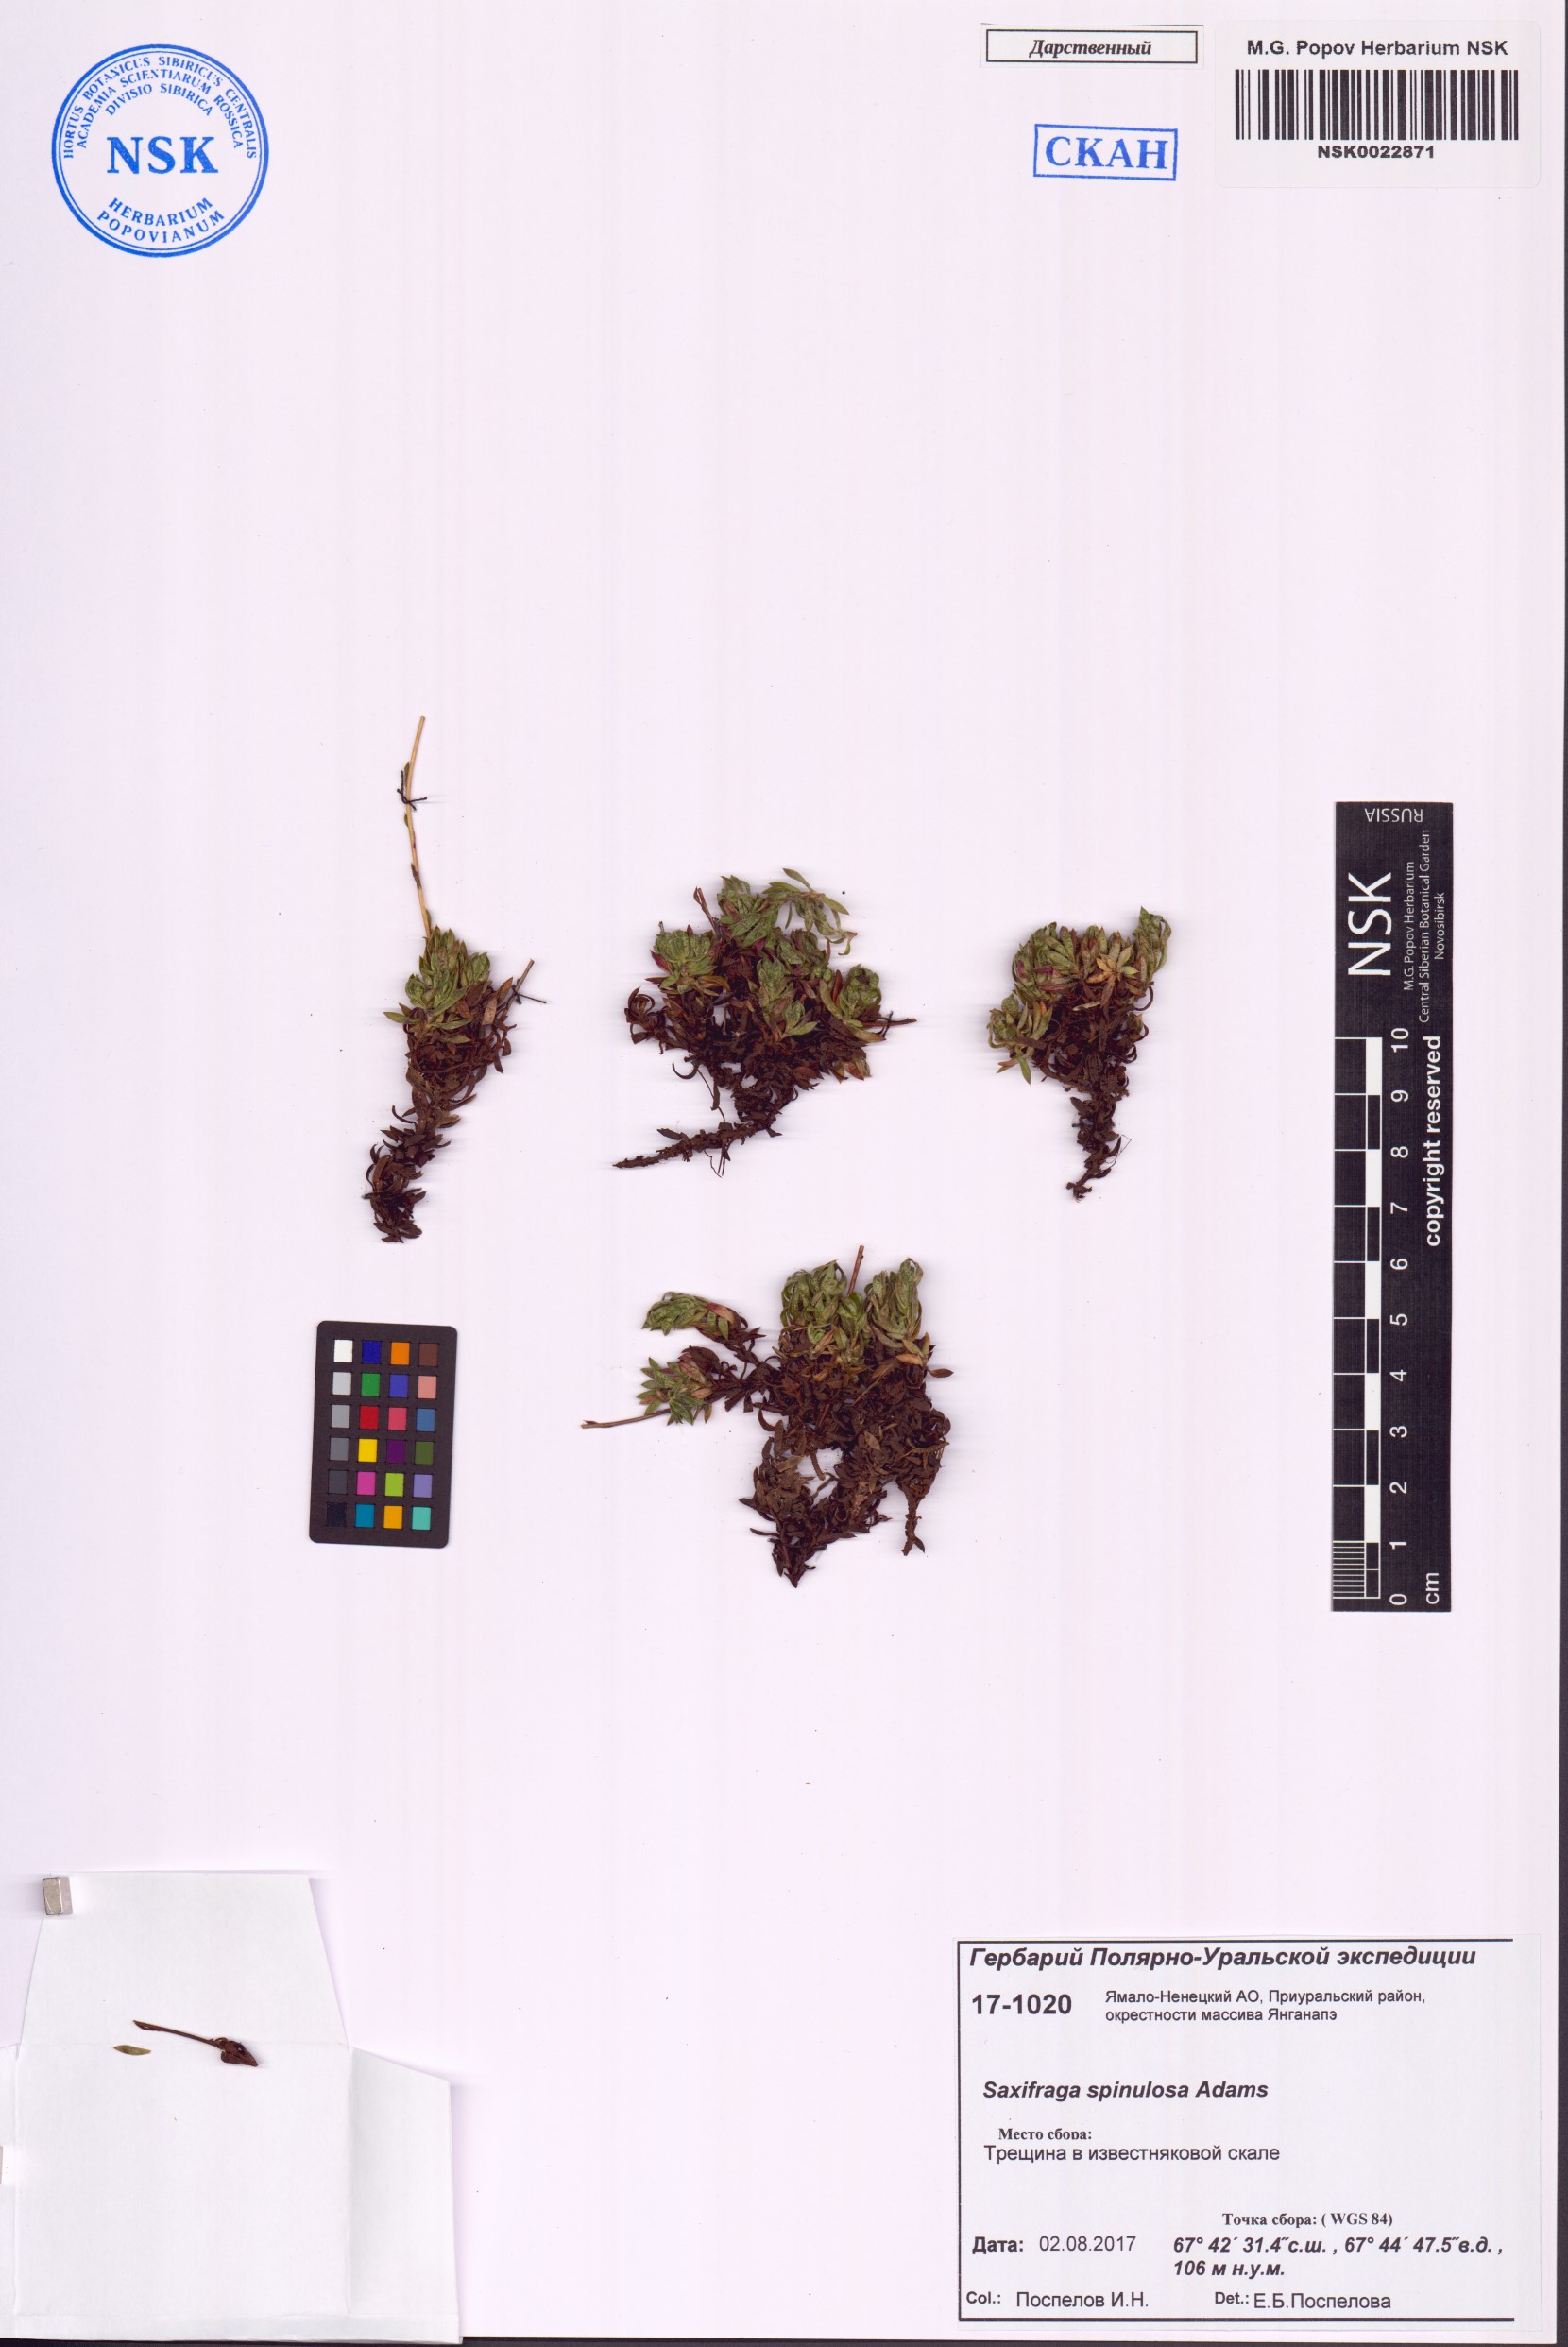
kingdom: Plantae
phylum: Tracheophyta
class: Magnoliopsida
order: Saxifragales
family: Saxifragaceae
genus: Saxifraga
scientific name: Saxifraga bronchialis
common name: Matted saxifrage
